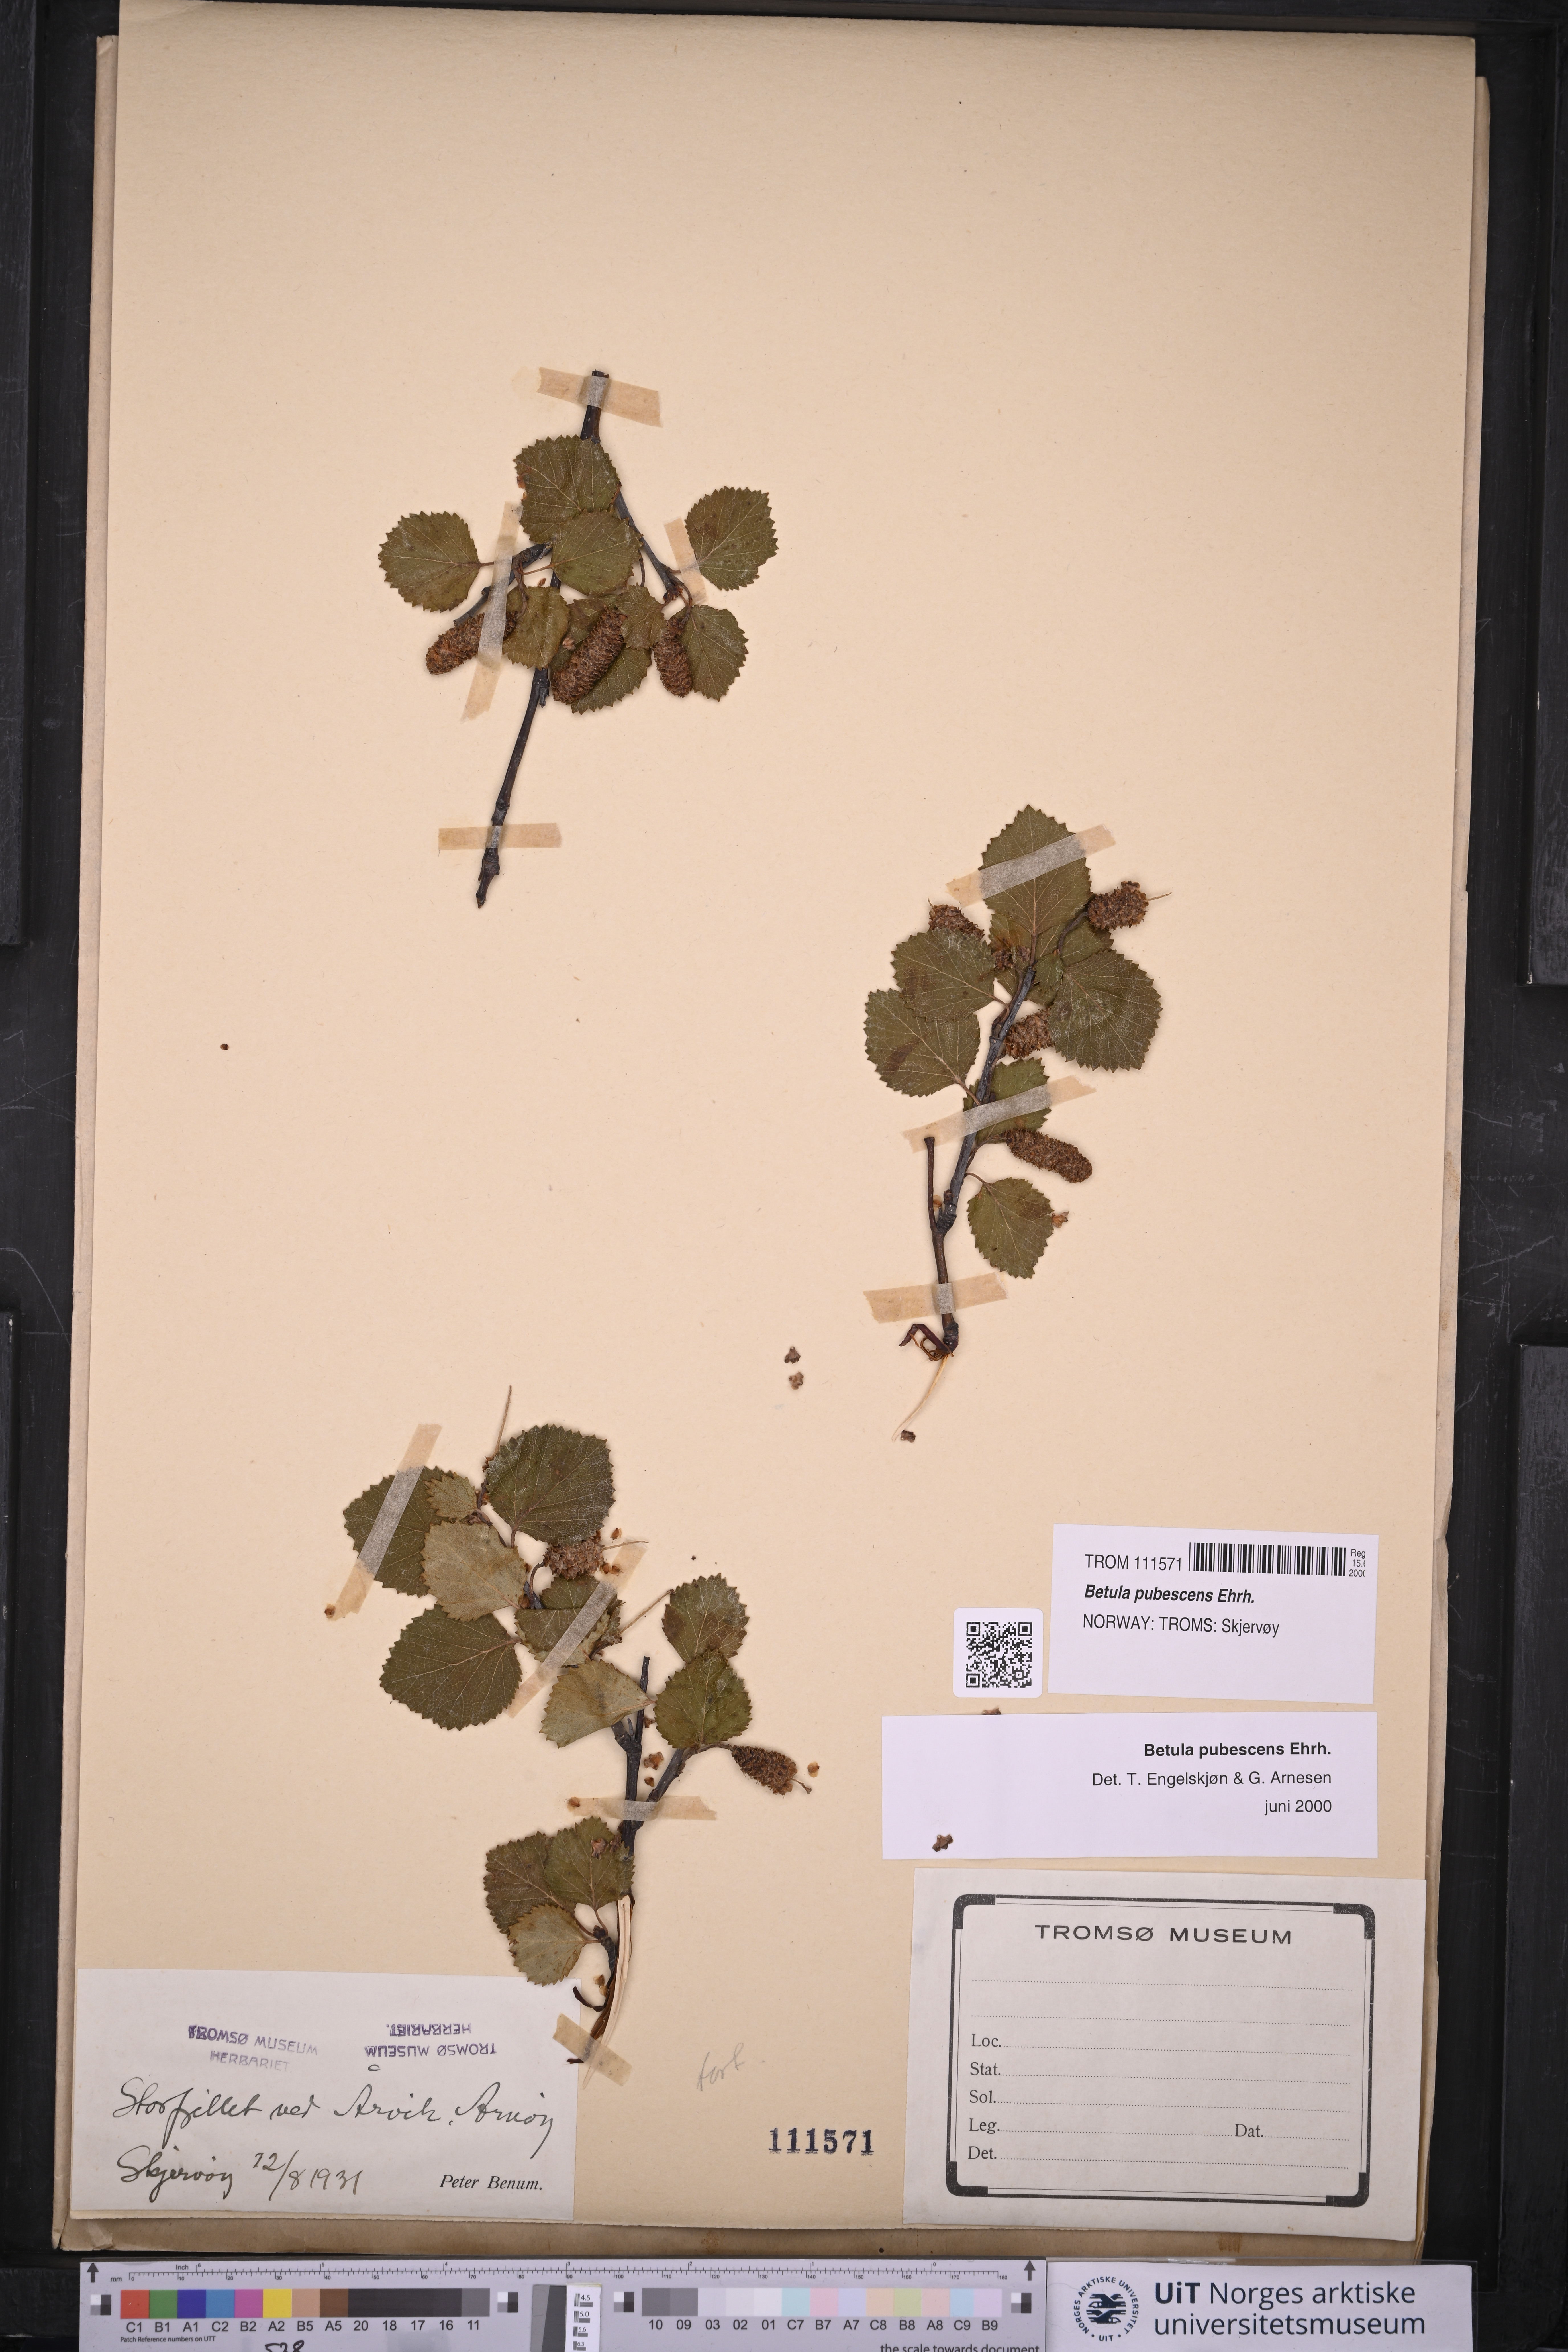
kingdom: Plantae
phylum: Tracheophyta
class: Magnoliopsida
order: Fagales
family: Betulaceae
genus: Betula
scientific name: Betula pubescens
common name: Downy birch
